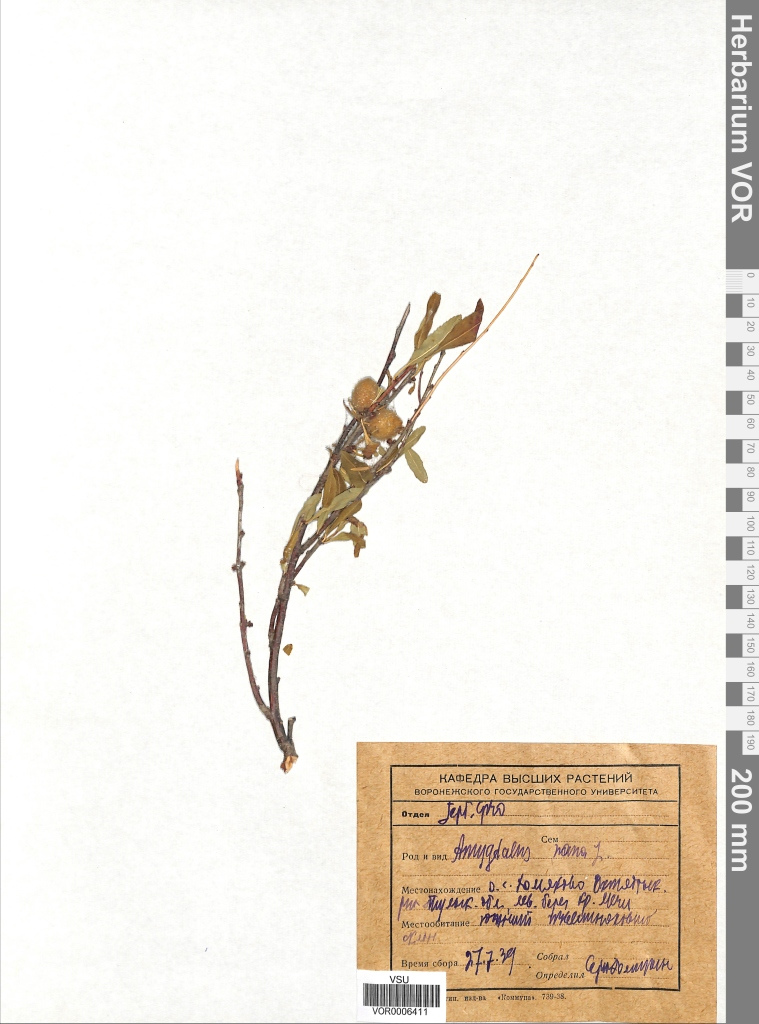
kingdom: Plantae
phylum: Tracheophyta
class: Magnoliopsida
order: Rosales
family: Rosaceae
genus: Prunus
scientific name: Prunus tenella
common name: Dwarf russian almond
